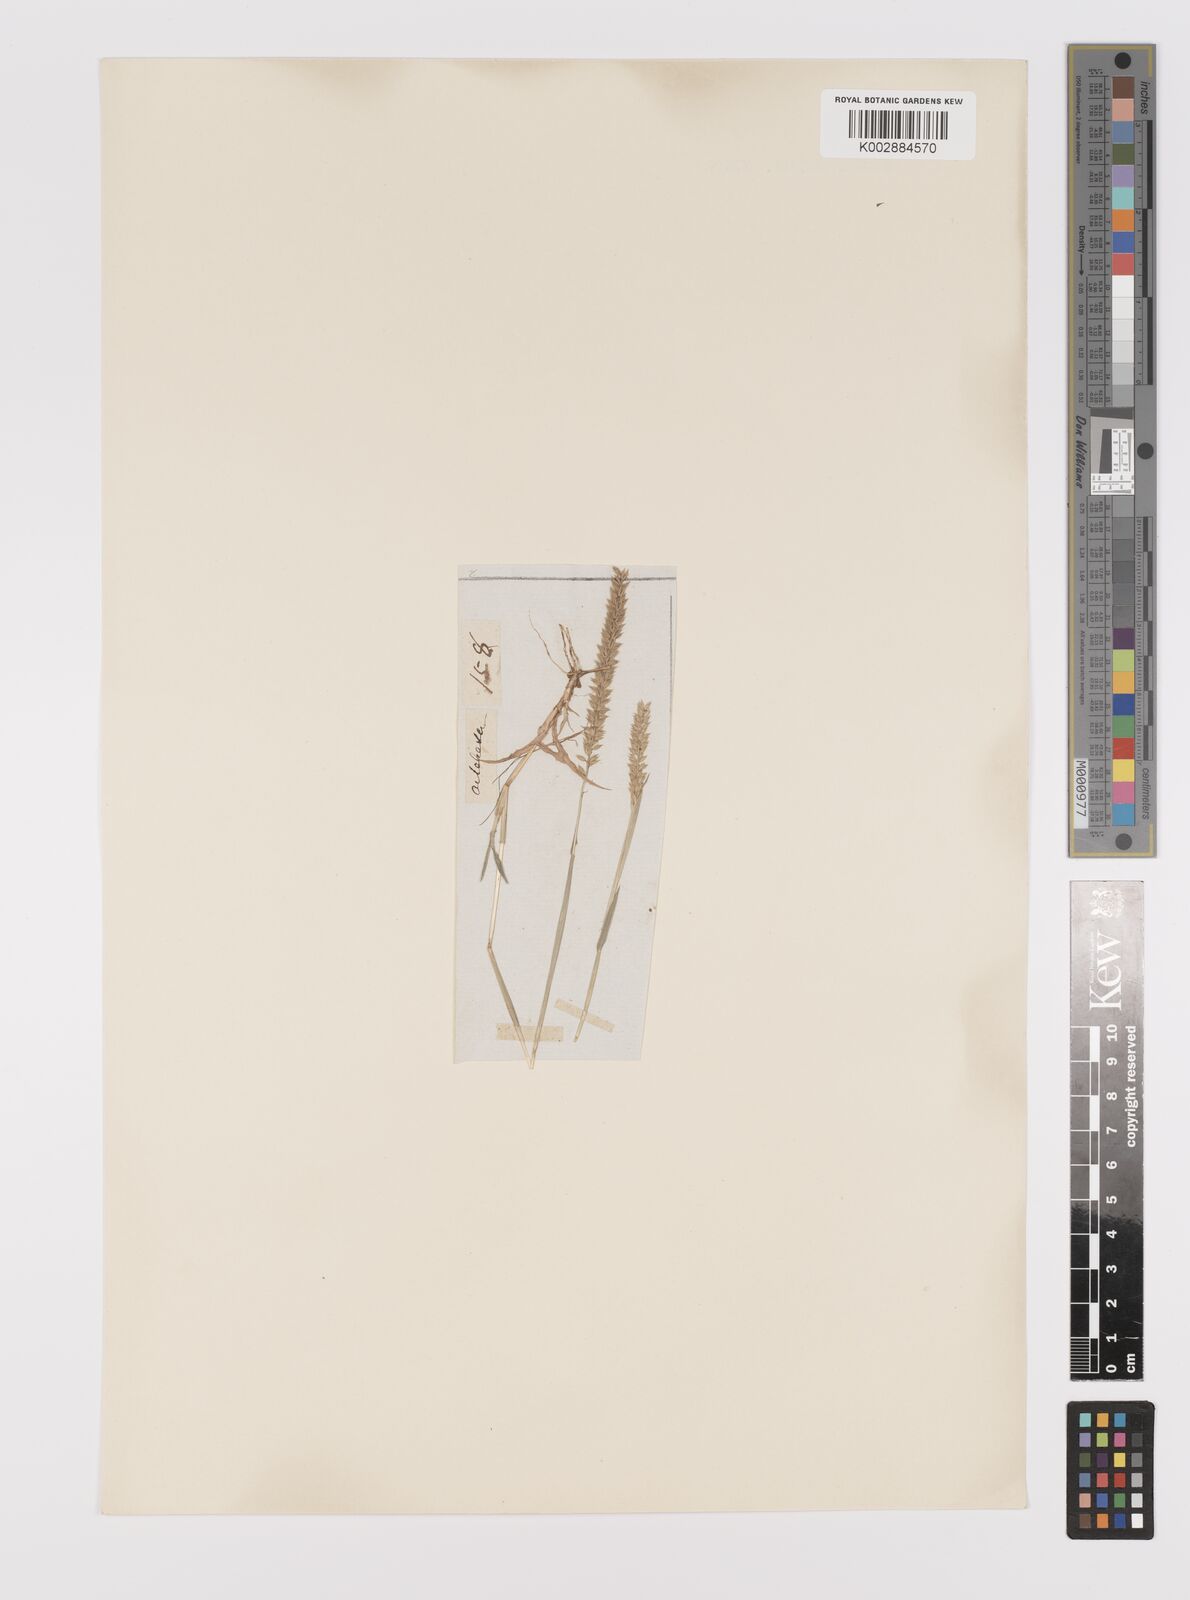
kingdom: Plantae
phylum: Tracheophyta
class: Liliopsida
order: Poales
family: Poaceae
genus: Tragus
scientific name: Tragus mongolorum
